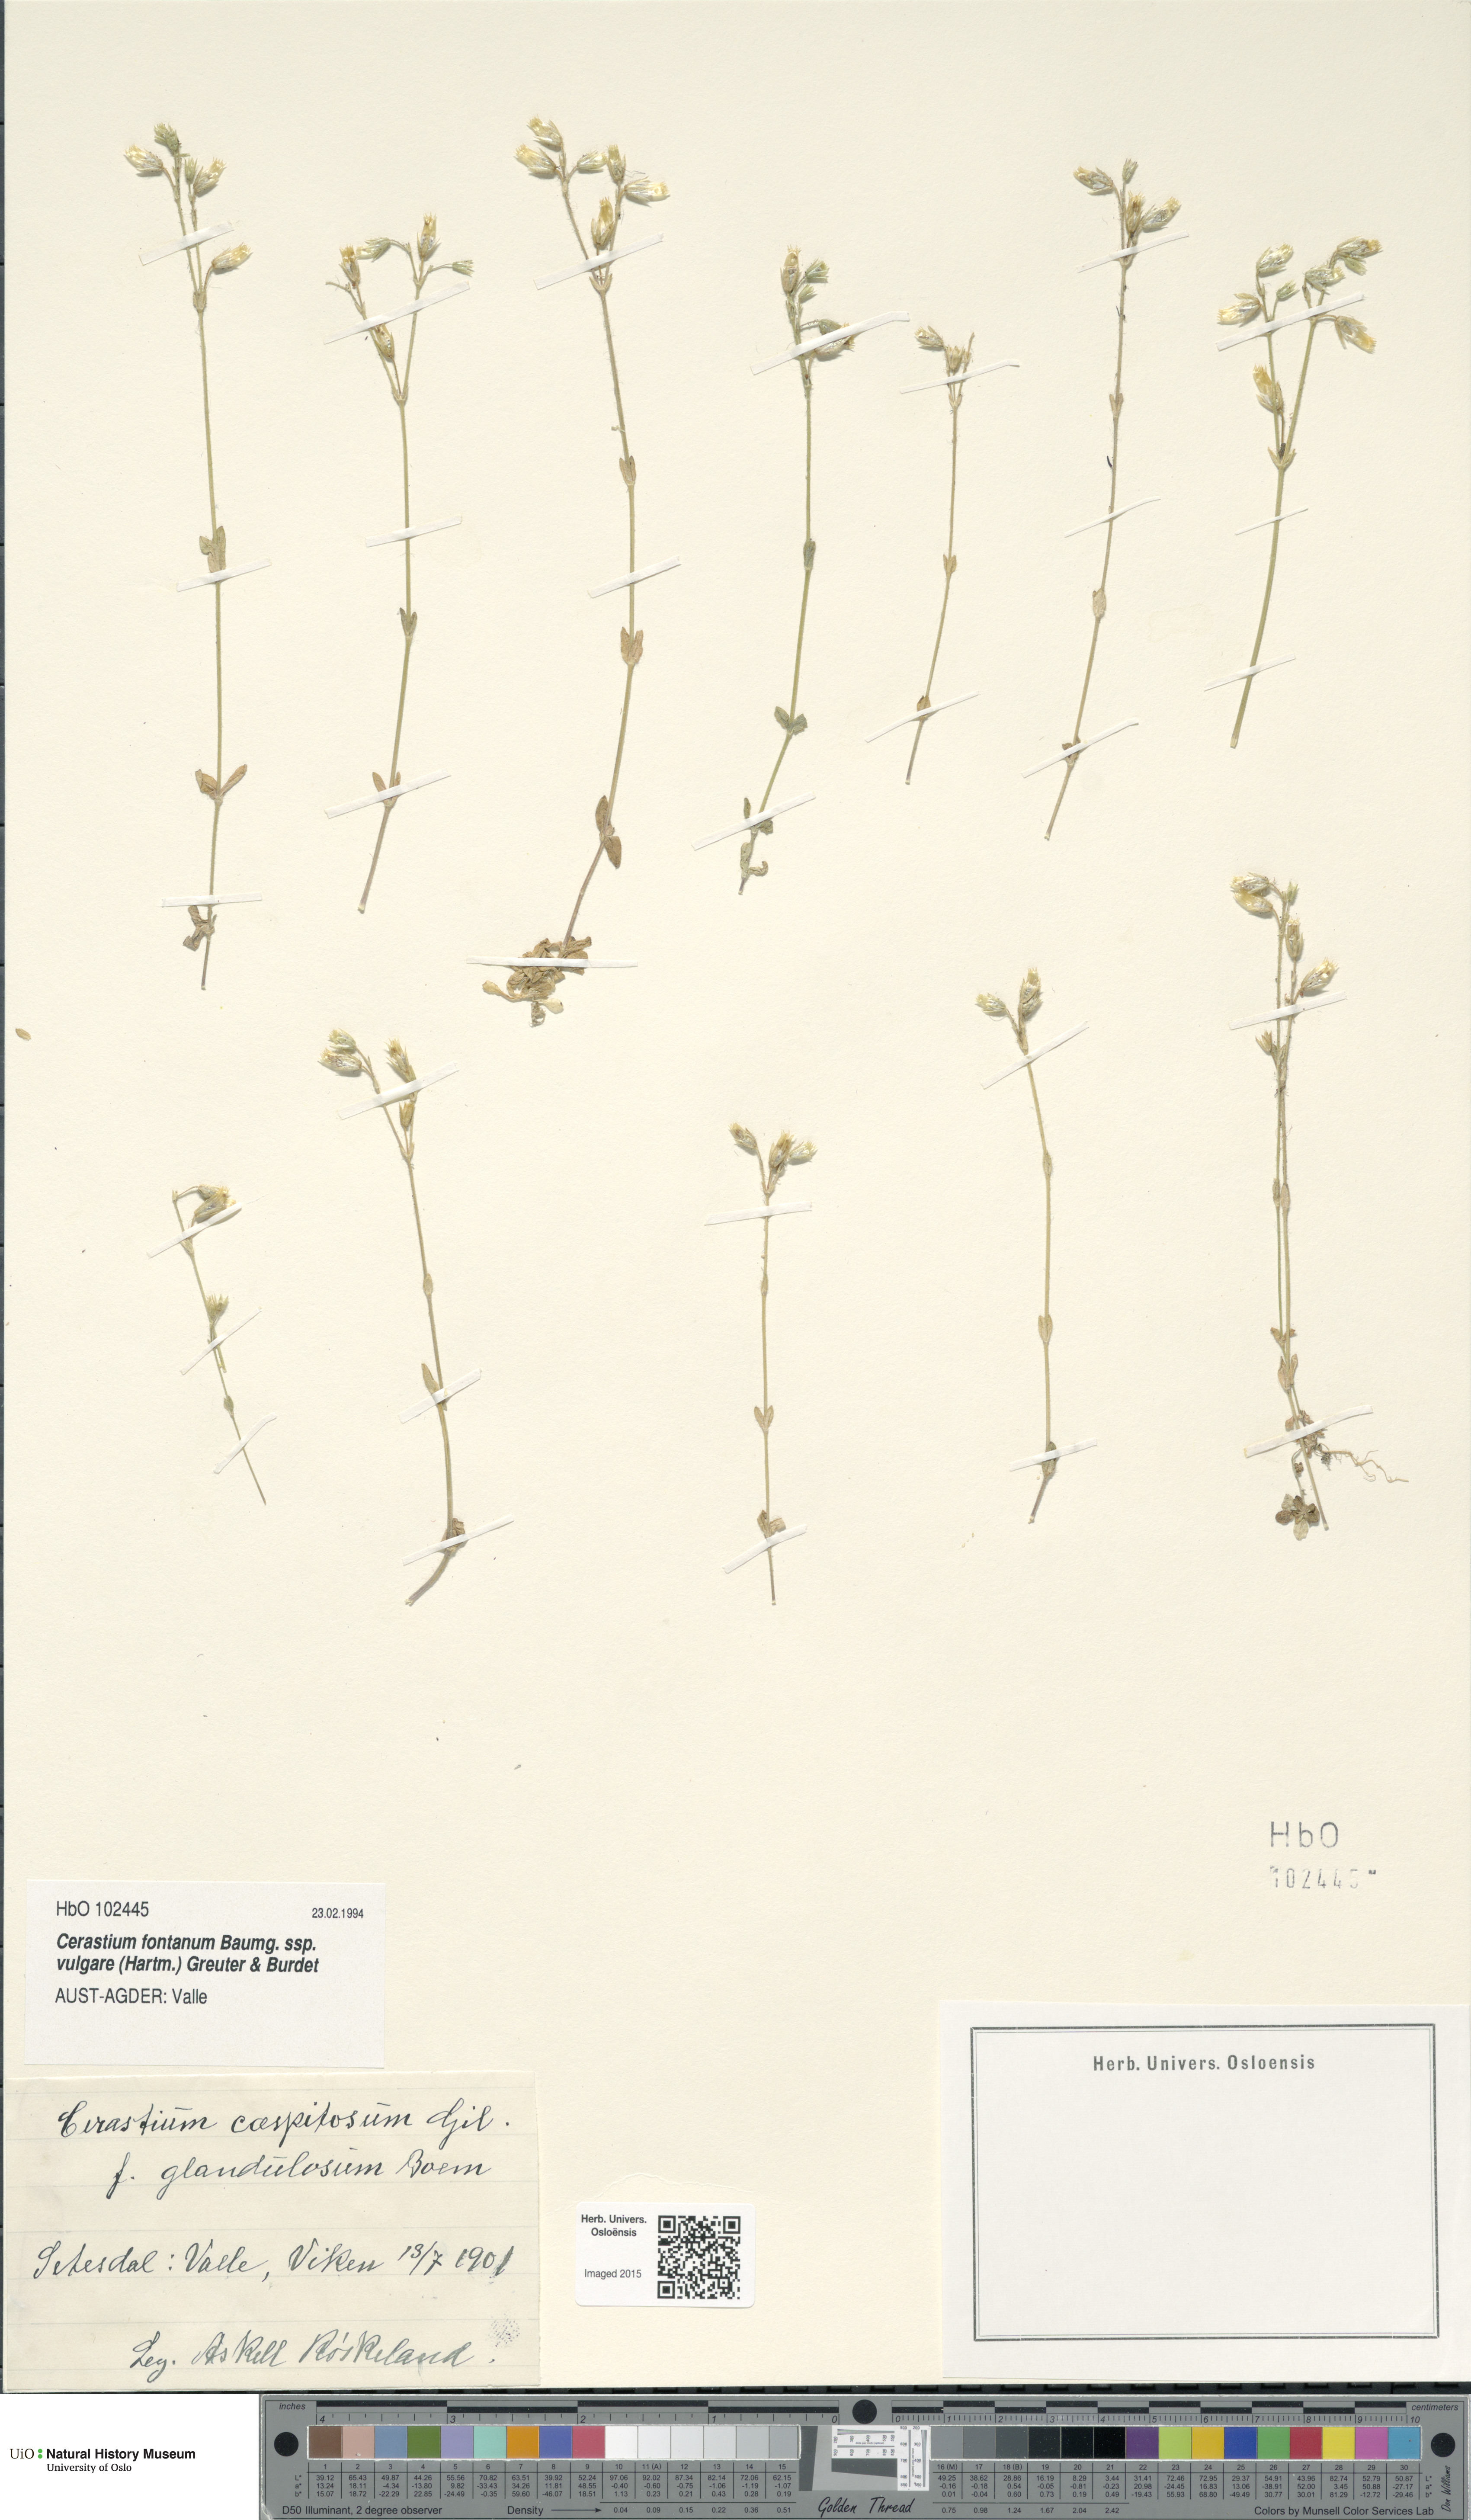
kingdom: Plantae
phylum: Tracheophyta
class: Magnoliopsida
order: Caryophyllales
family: Caryophyllaceae
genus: Cerastium
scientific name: Cerastium holosteoides
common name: Big chickweed
